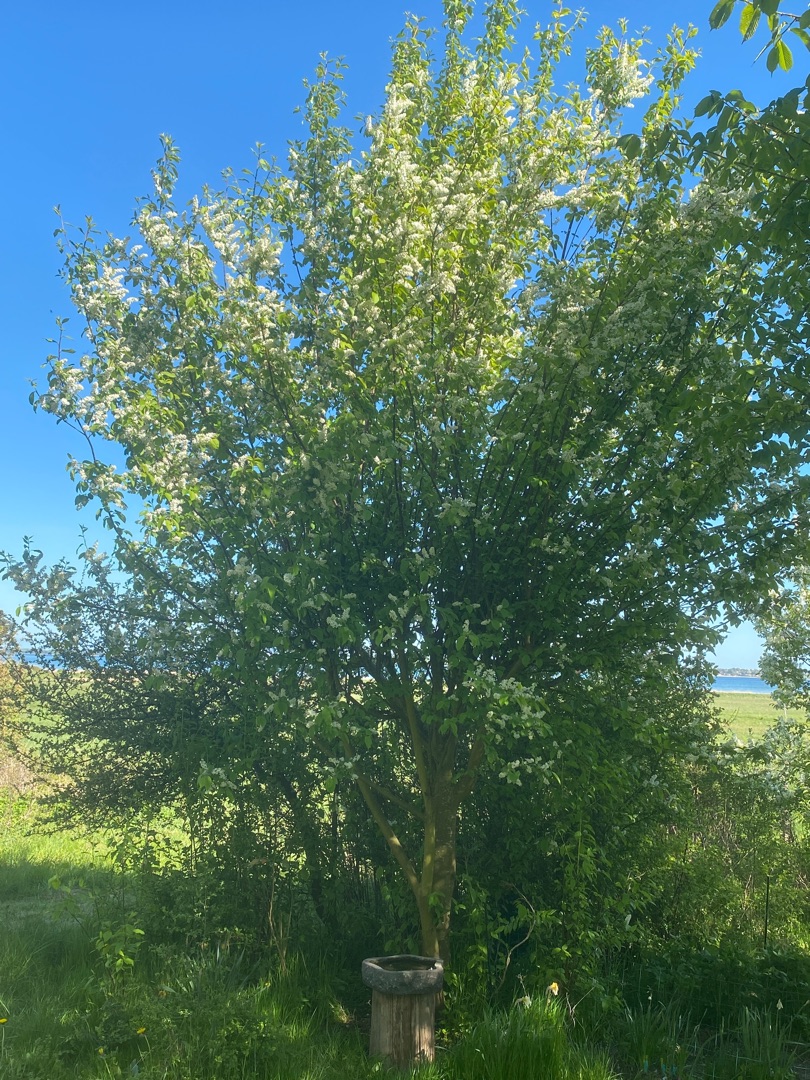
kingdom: Plantae
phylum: Tracheophyta
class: Magnoliopsida
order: Rosales
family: Rosaceae
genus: Prunus
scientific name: Prunus padus
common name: Almindelig hæg
